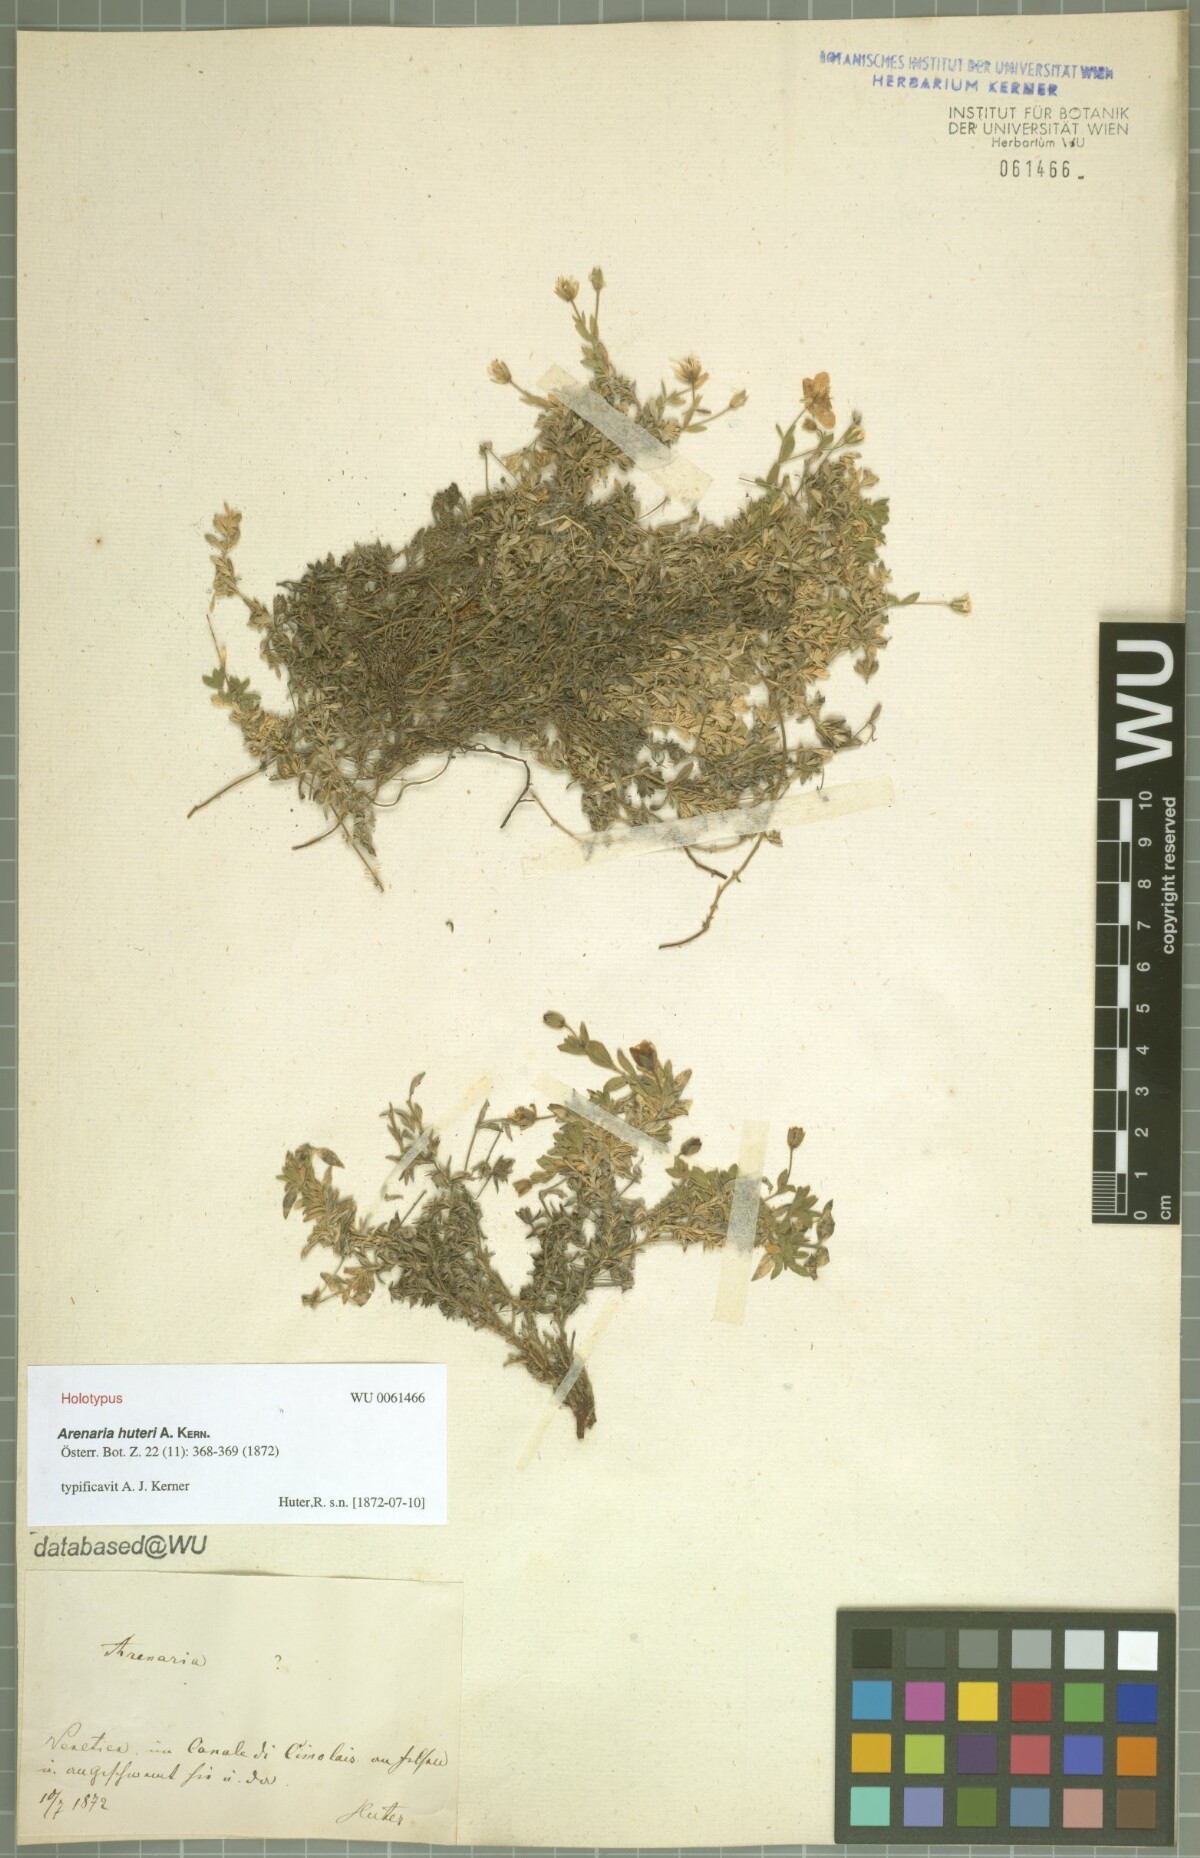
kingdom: Plantae
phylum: Tracheophyta
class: Magnoliopsida
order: Caryophyllales
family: Caryophyllaceae
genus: Arenaria
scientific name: Arenaria huteri
